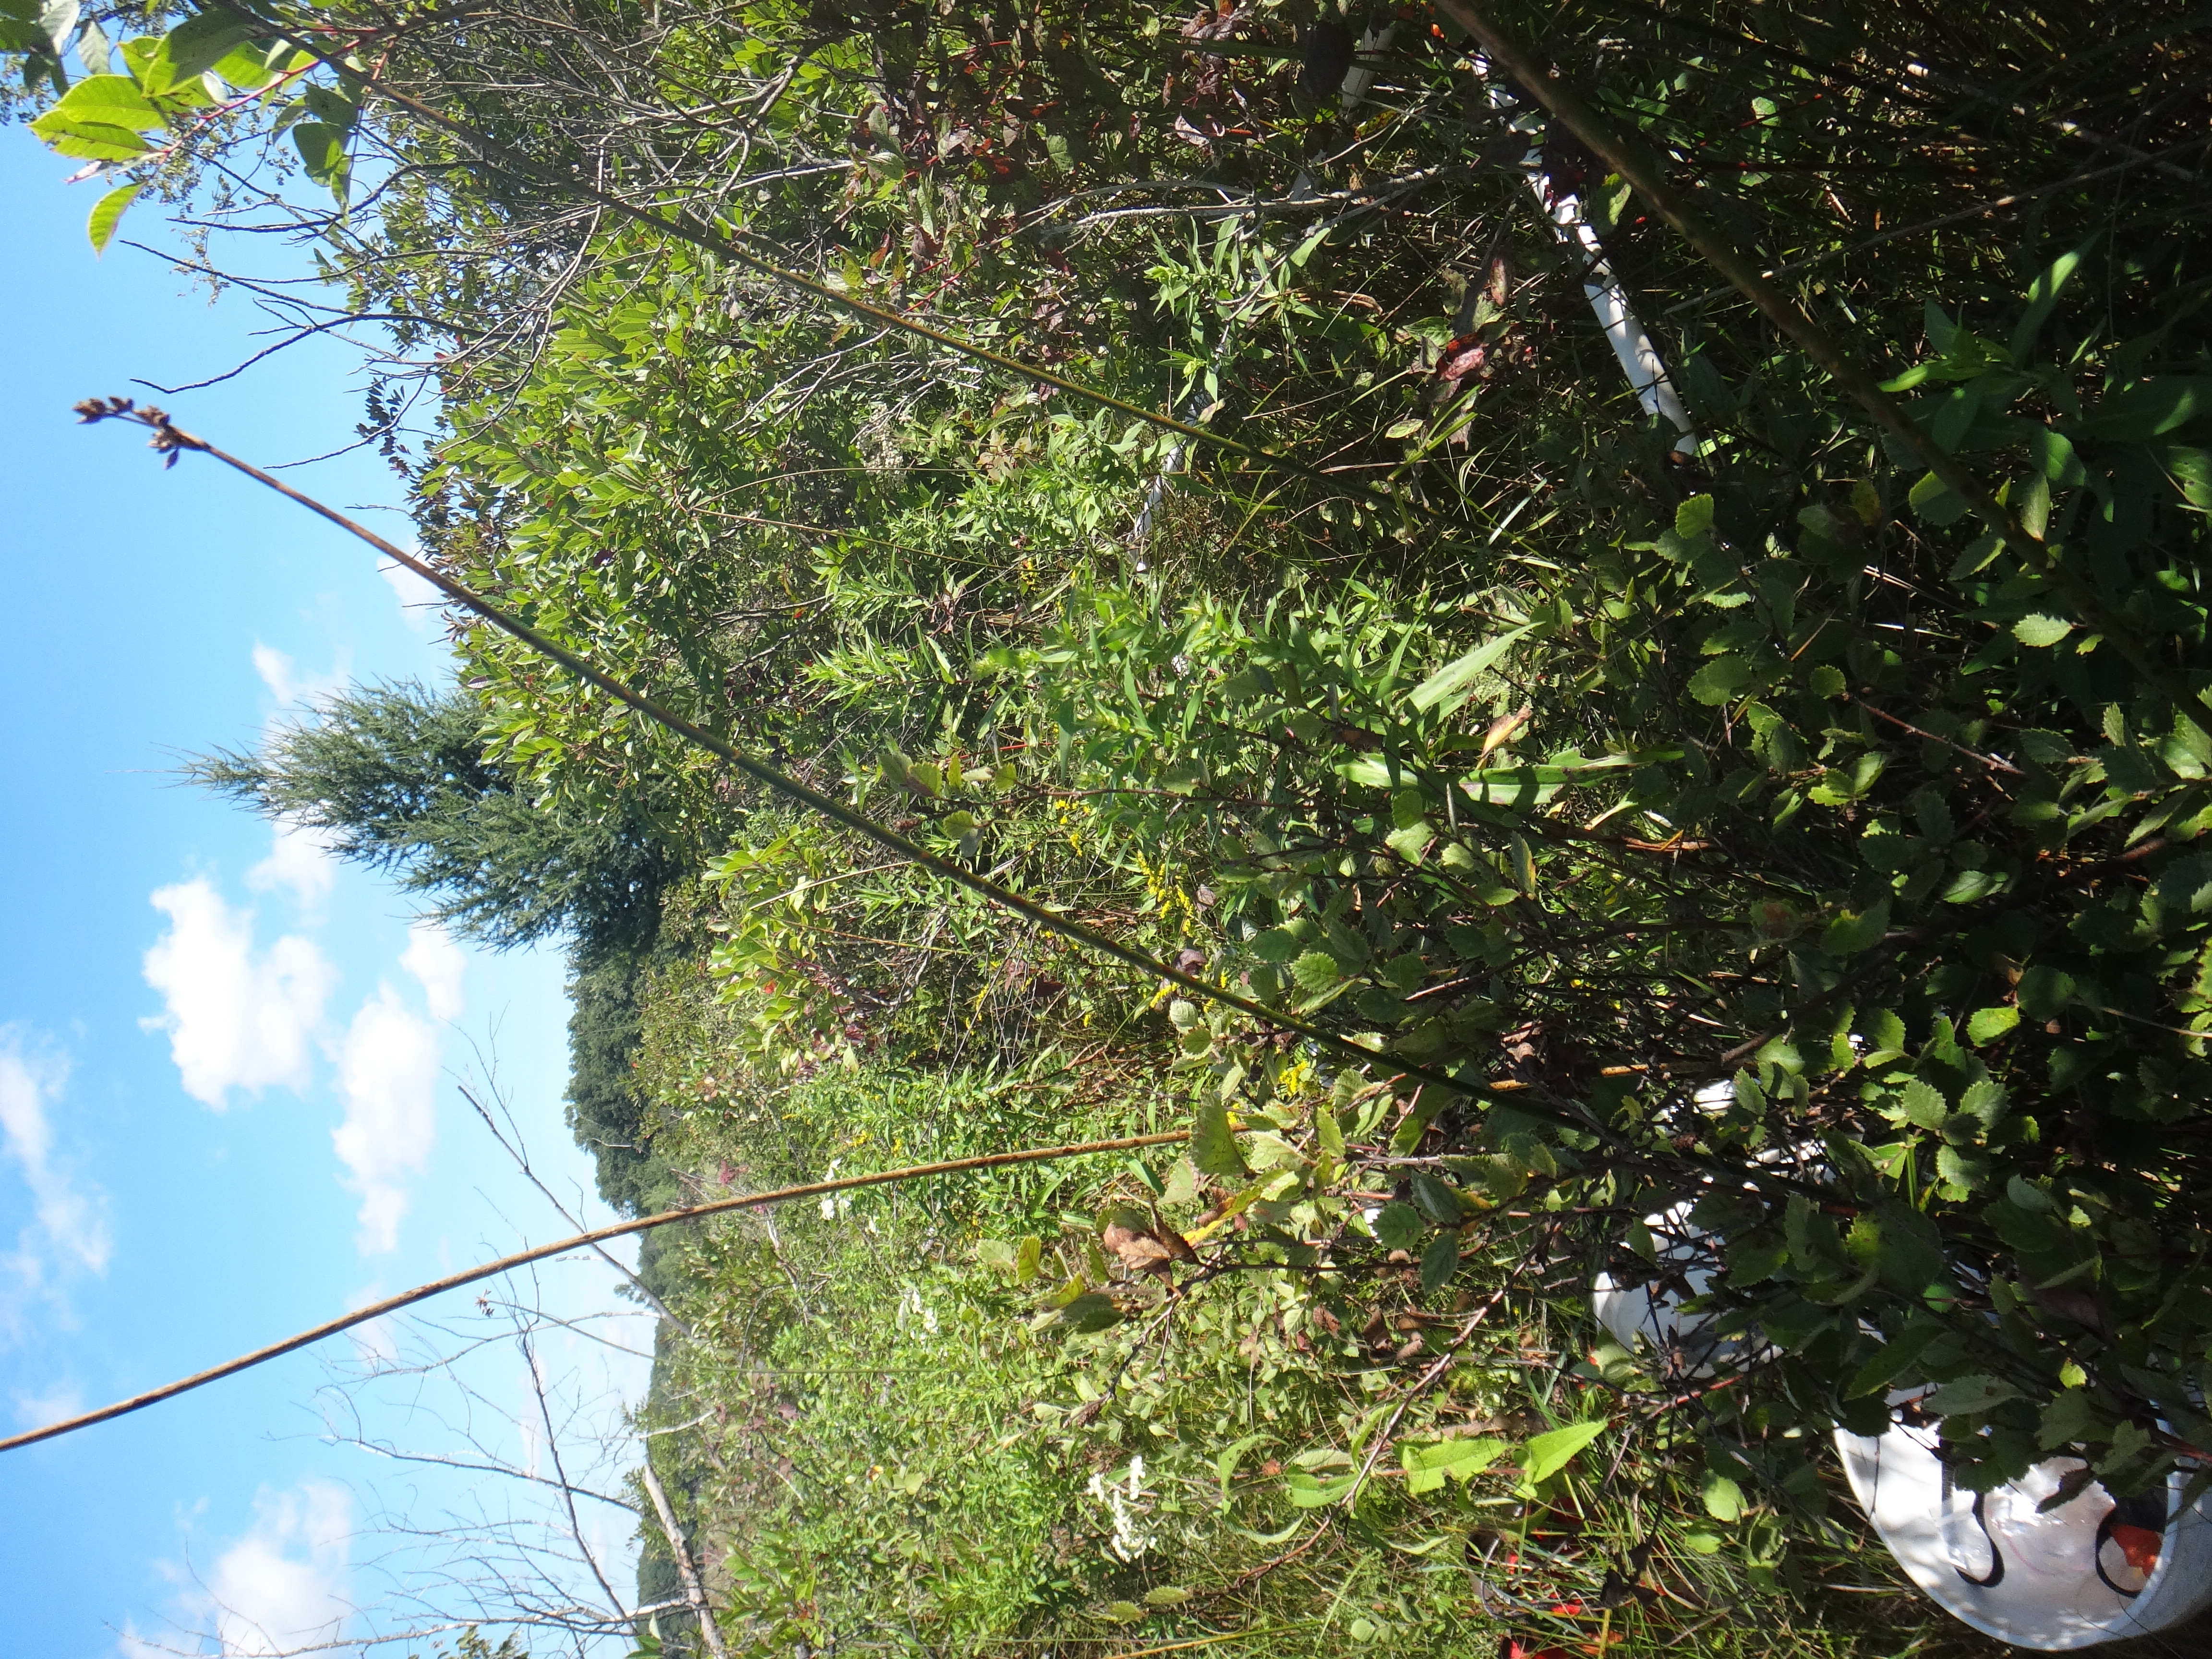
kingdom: Plantae
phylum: Tracheophyta
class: Magnoliopsida
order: Asterales
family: Asteraceae
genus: Solidago
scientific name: Solidago patula
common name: Rough-leaf goldenrod
